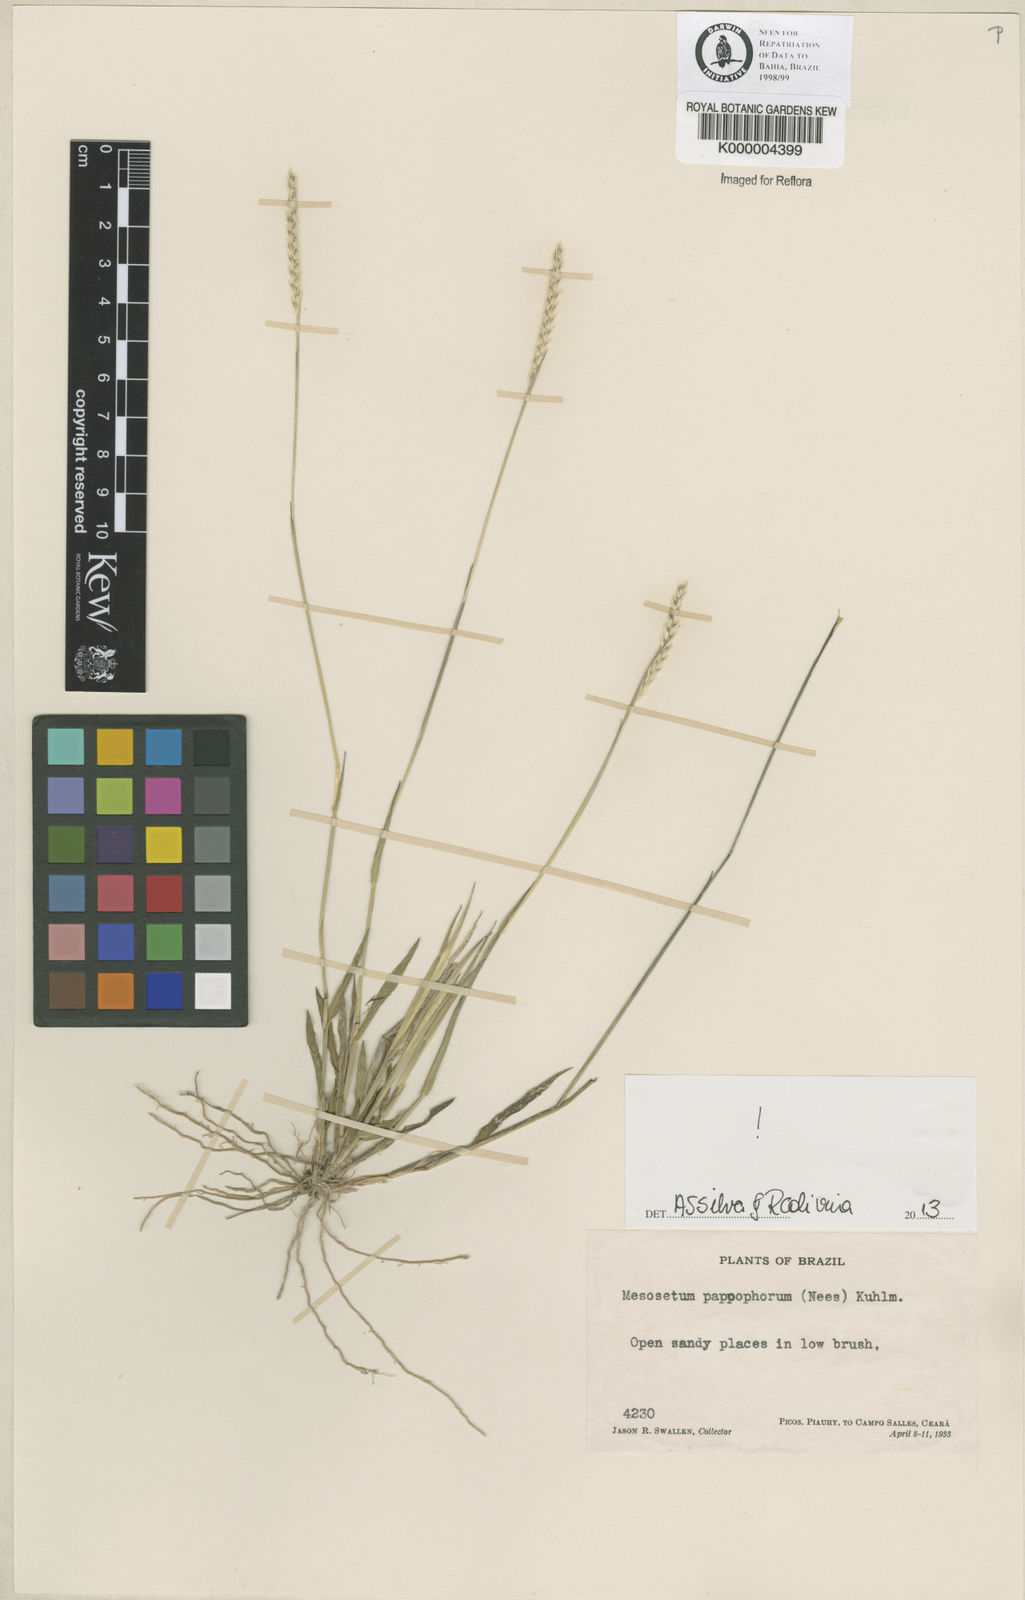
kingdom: Plantae
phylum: Tracheophyta
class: Liliopsida
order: Poales
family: Poaceae
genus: Mesosetum
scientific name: Mesosetum pappophorum
